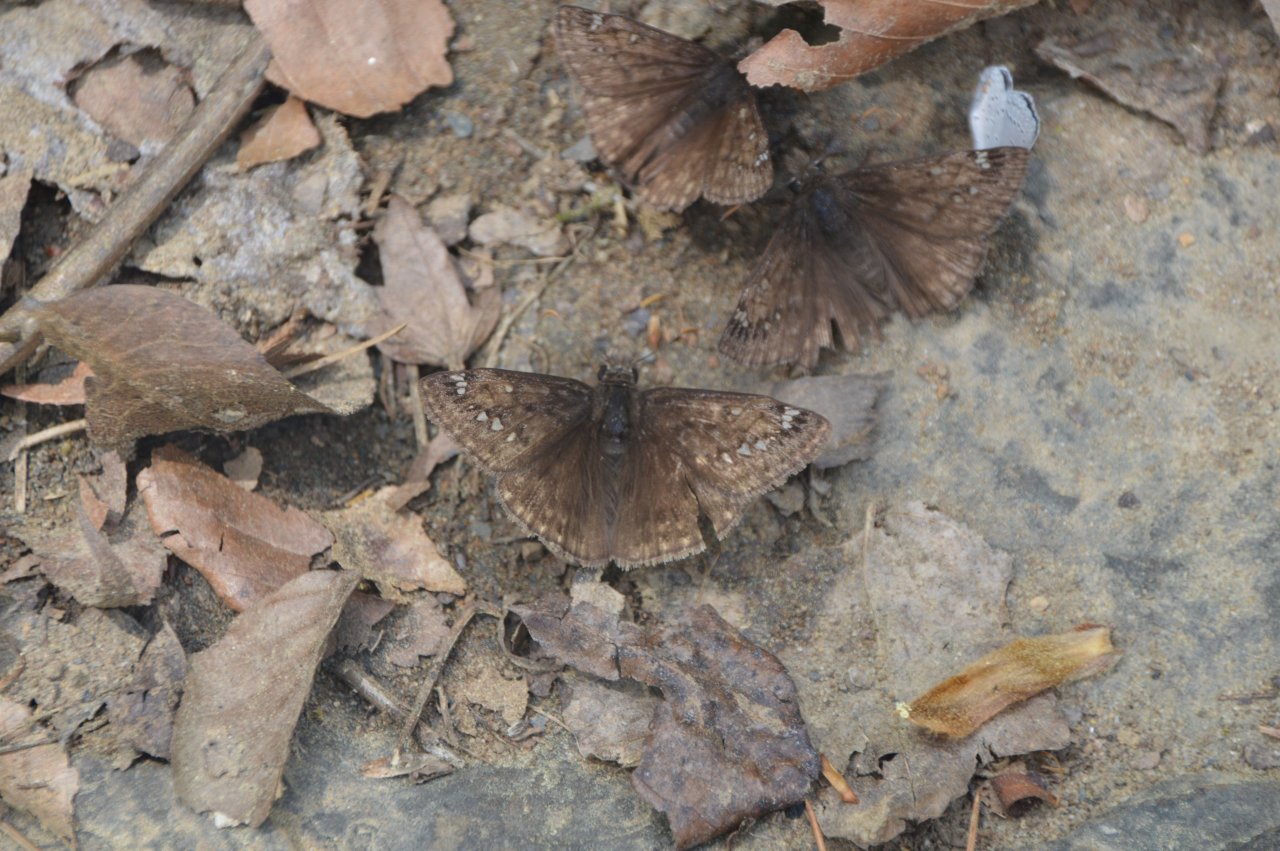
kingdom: Animalia
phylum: Arthropoda
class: Insecta
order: Lepidoptera
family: Hesperiidae
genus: Gesta
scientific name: Gesta
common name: Horace's Duskywing
